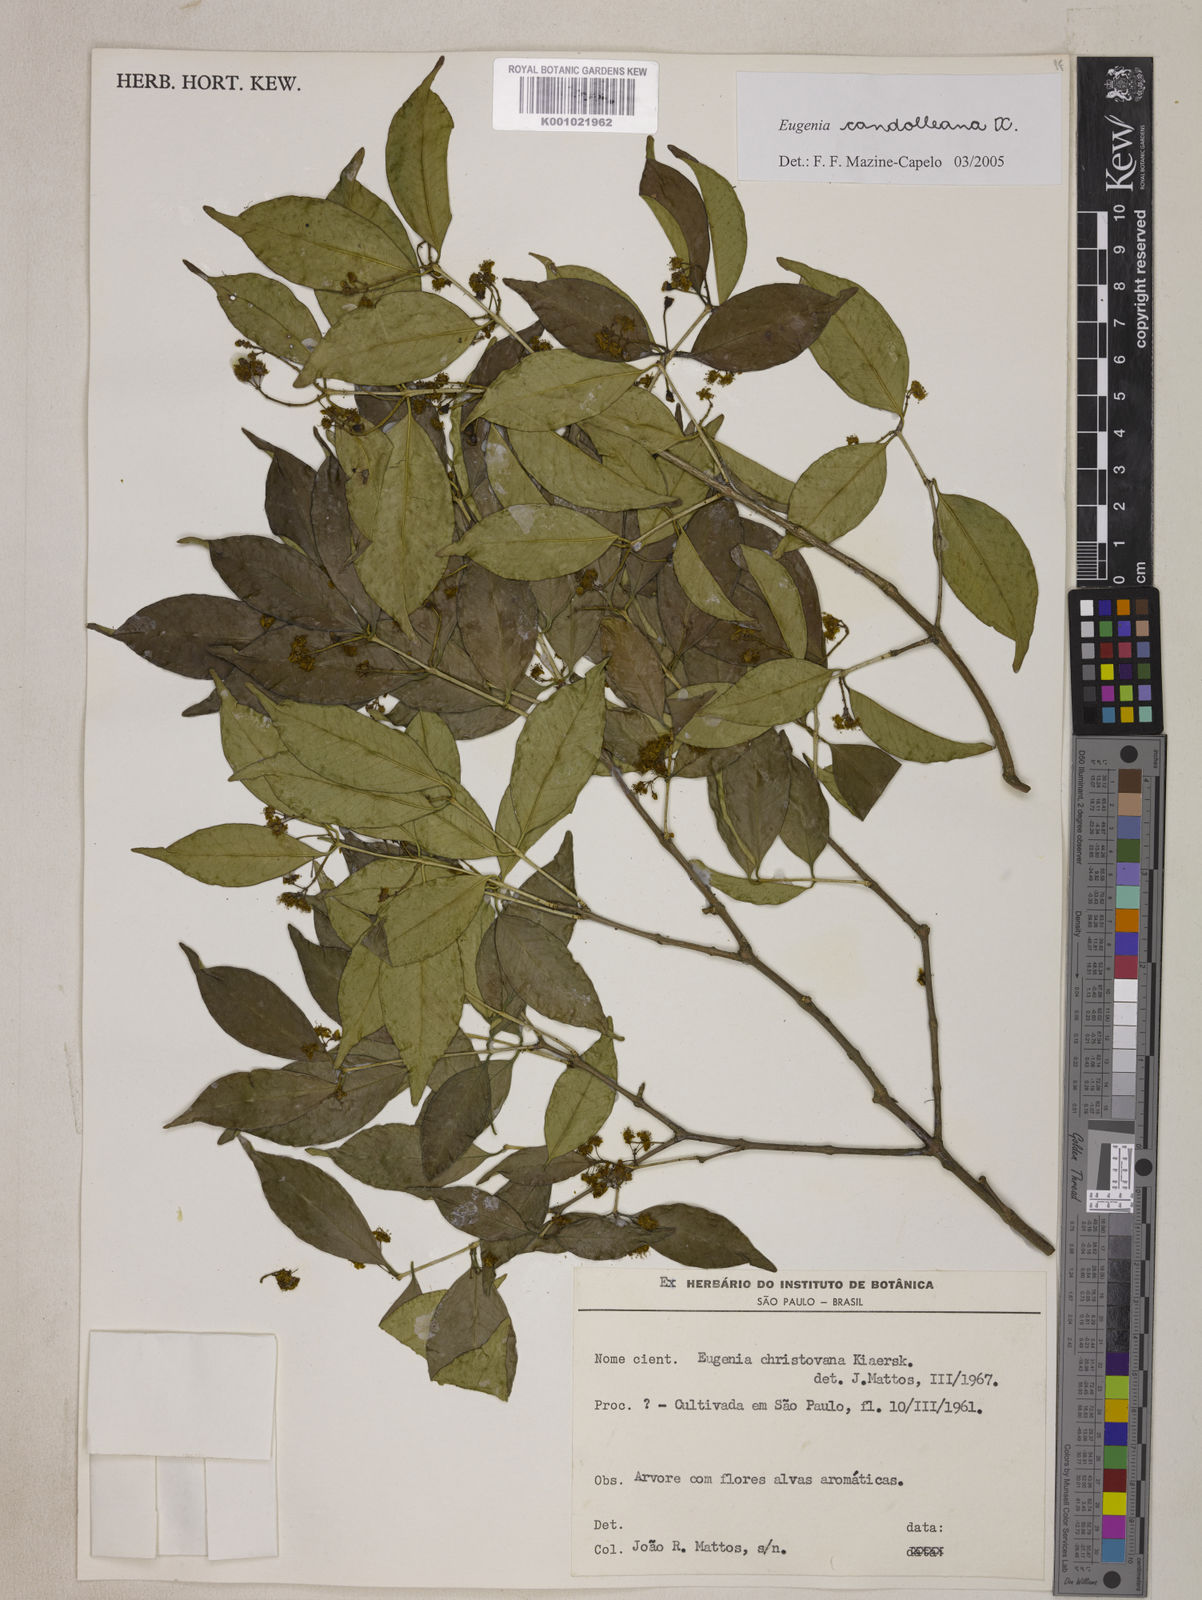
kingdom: Plantae
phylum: Tracheophyta
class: Magnoliopsida
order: Myrtales
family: Myrtaceae
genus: Eugenia
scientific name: Eugenia candolleana
